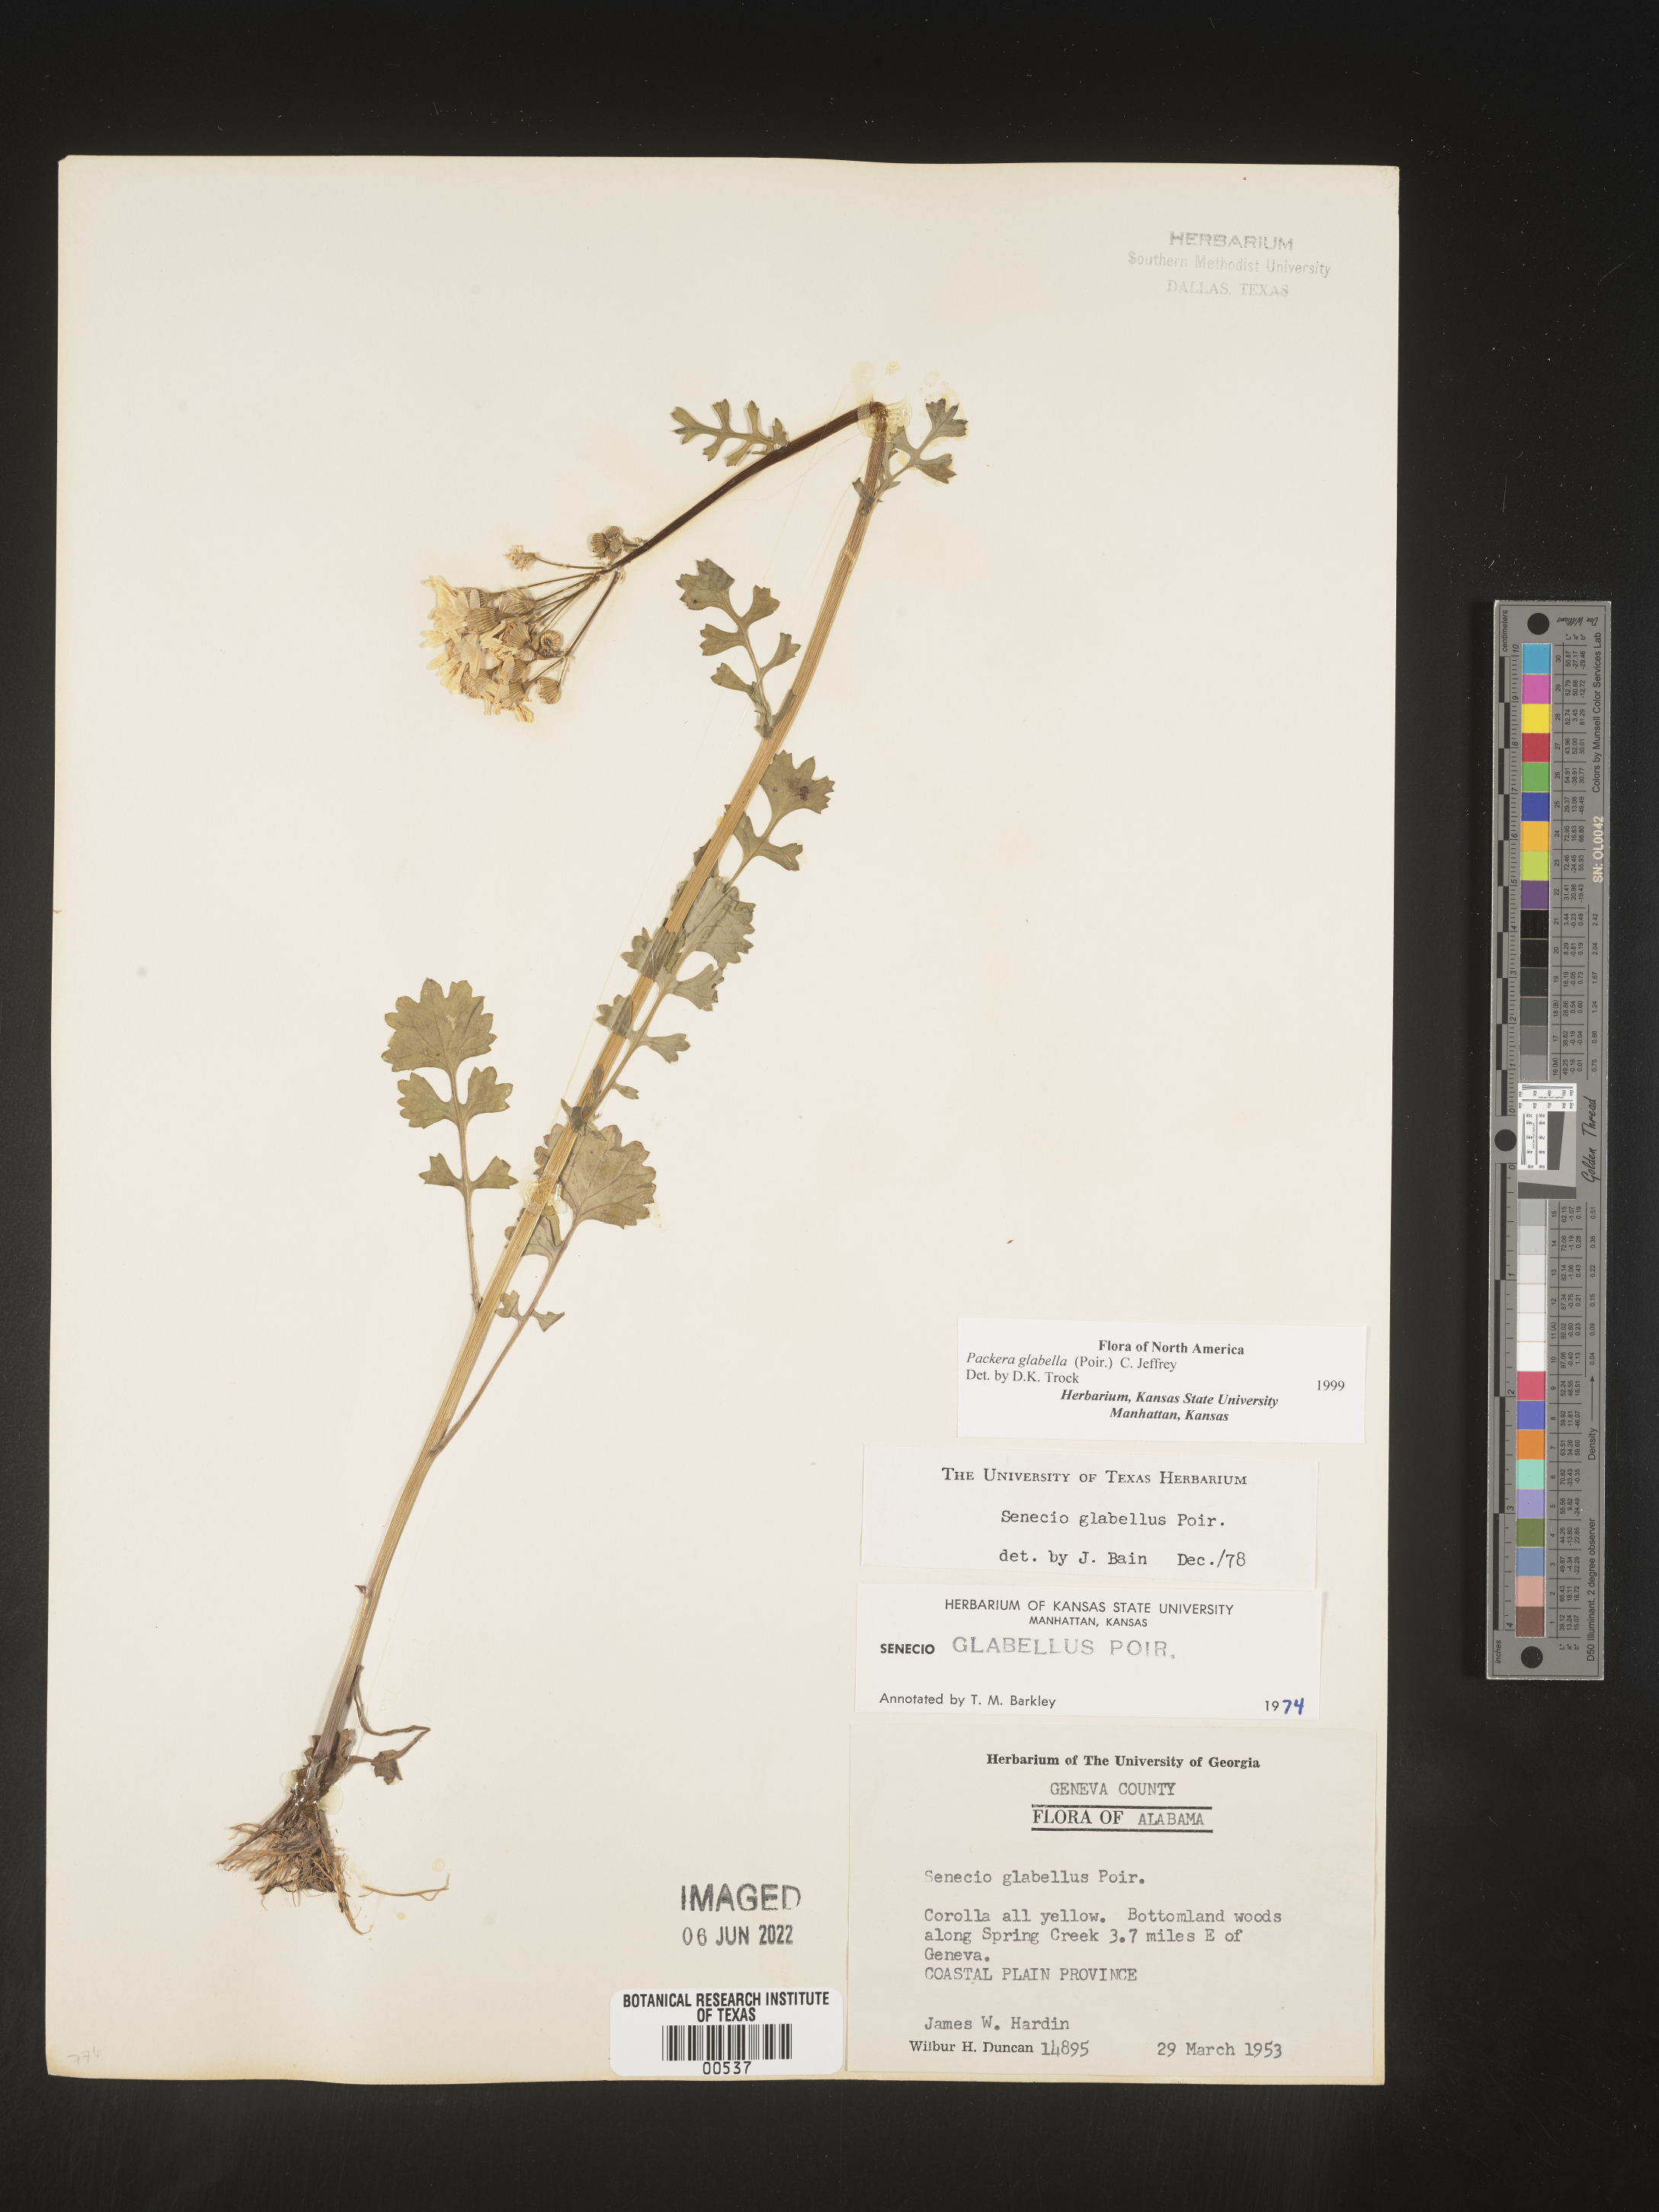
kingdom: Plantae
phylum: Tracheophyta
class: Magnoliopsida
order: Asterales
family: Asteraceae
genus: Packera
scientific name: Packera glabella
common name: Butterweed
